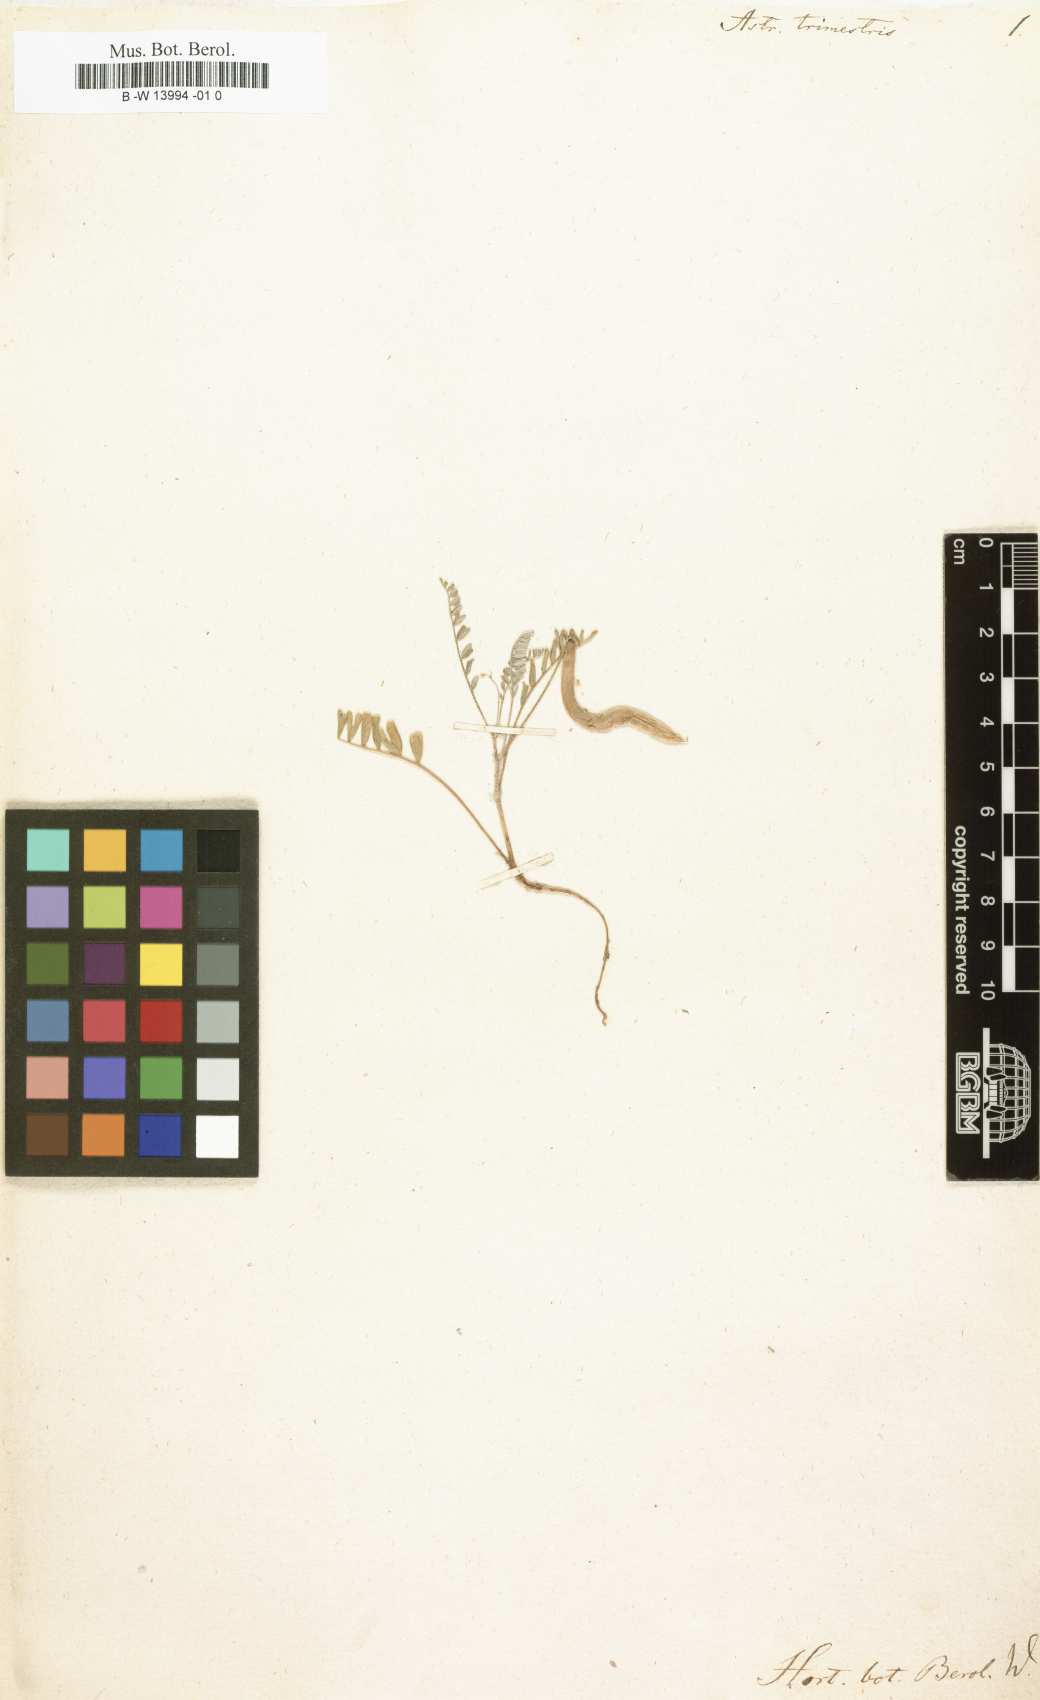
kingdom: Plantae
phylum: Tracheophyta
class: Magnoliopsida
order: Fabales
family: Fabaceae
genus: Astragalus
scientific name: Astragalus trimestris
